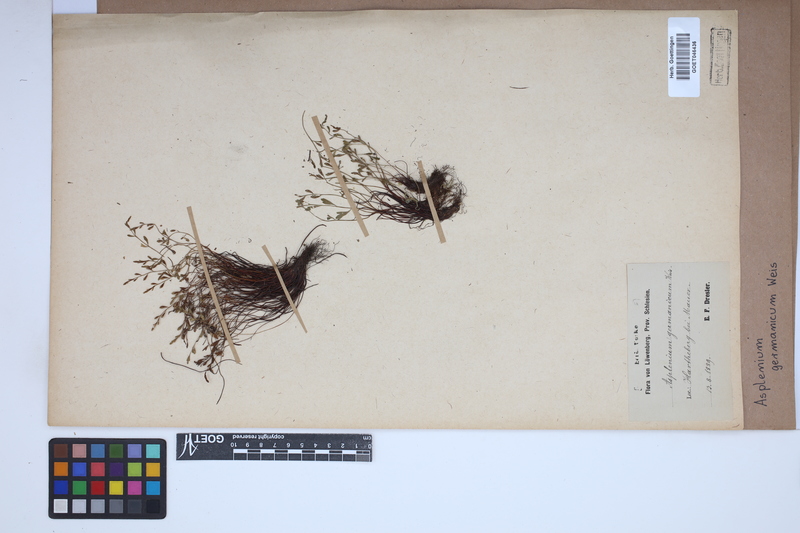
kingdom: Plantae
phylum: Tracheophyta
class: Polypodiopsida
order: Polypodiales
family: Aspleniaceae
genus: Asplenium
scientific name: Asplenium
